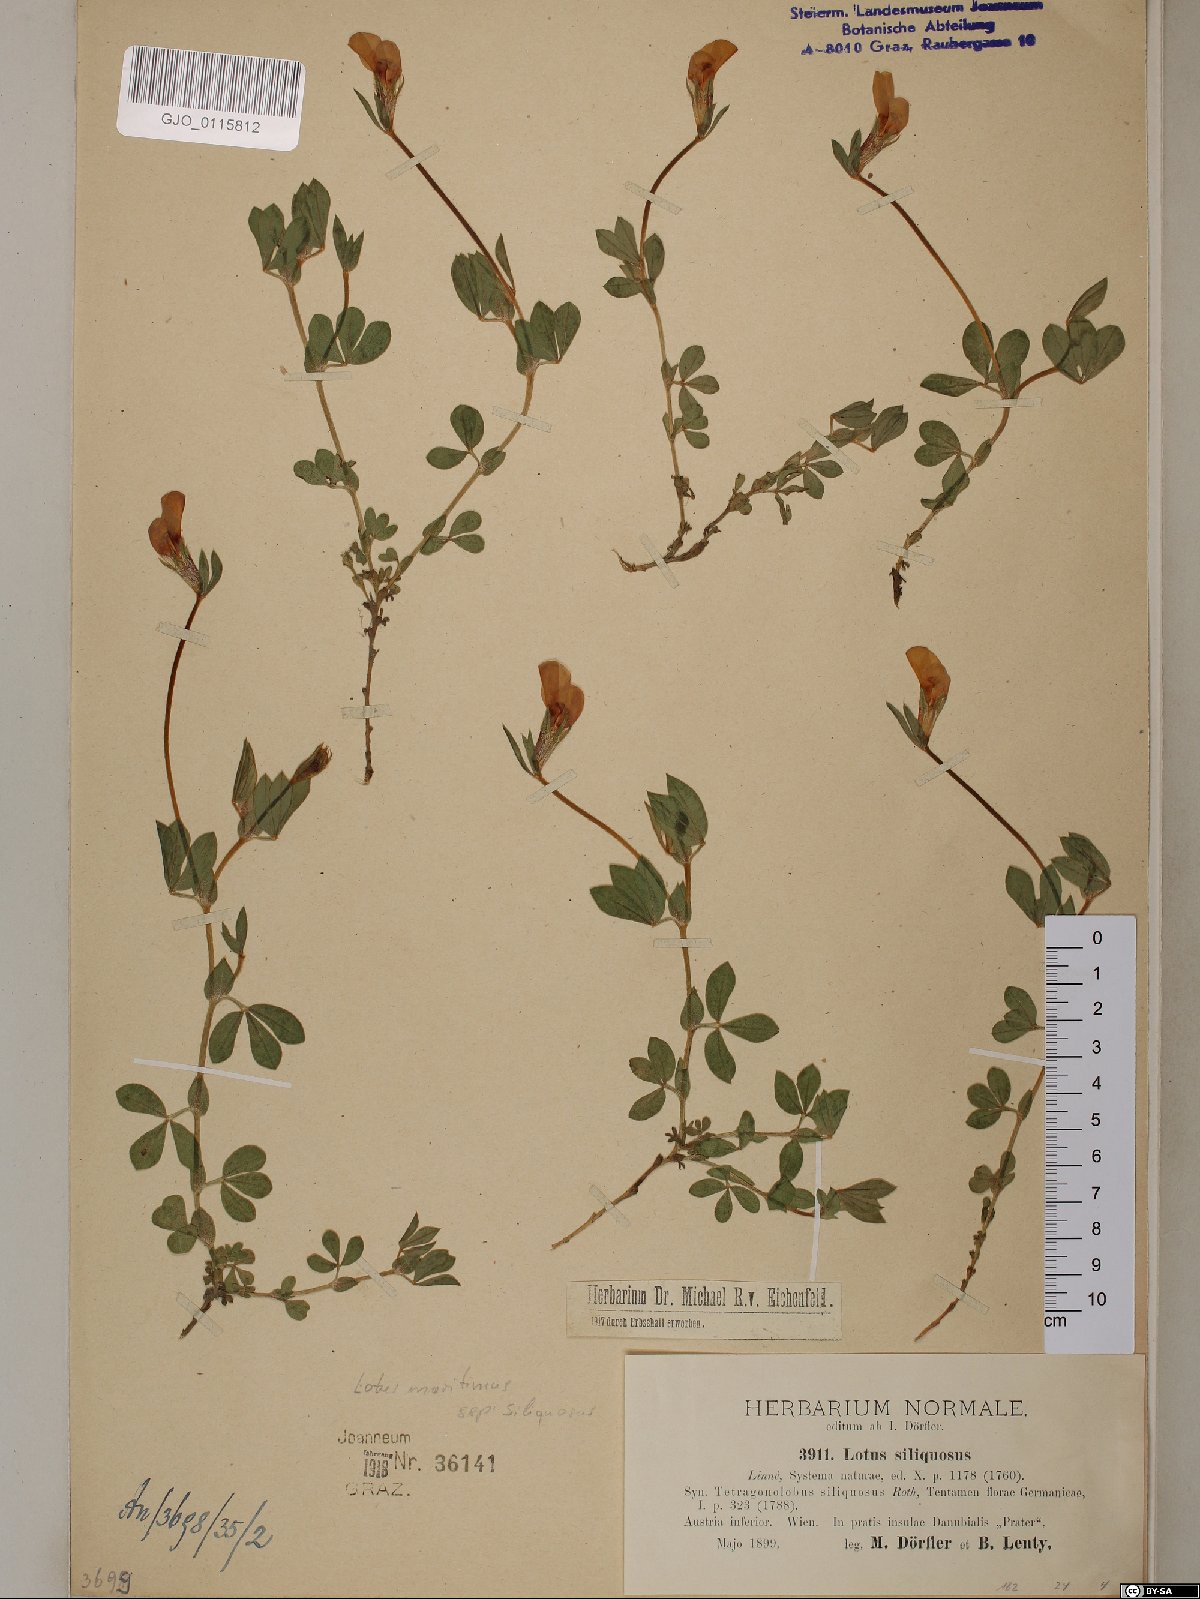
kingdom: Plantae
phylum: Tracheophyta
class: Magnoliopsida
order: Fabales
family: Fabaceae
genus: Lathyrus
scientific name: Lathyrus inconspicuus
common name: Inconspicuous pea
